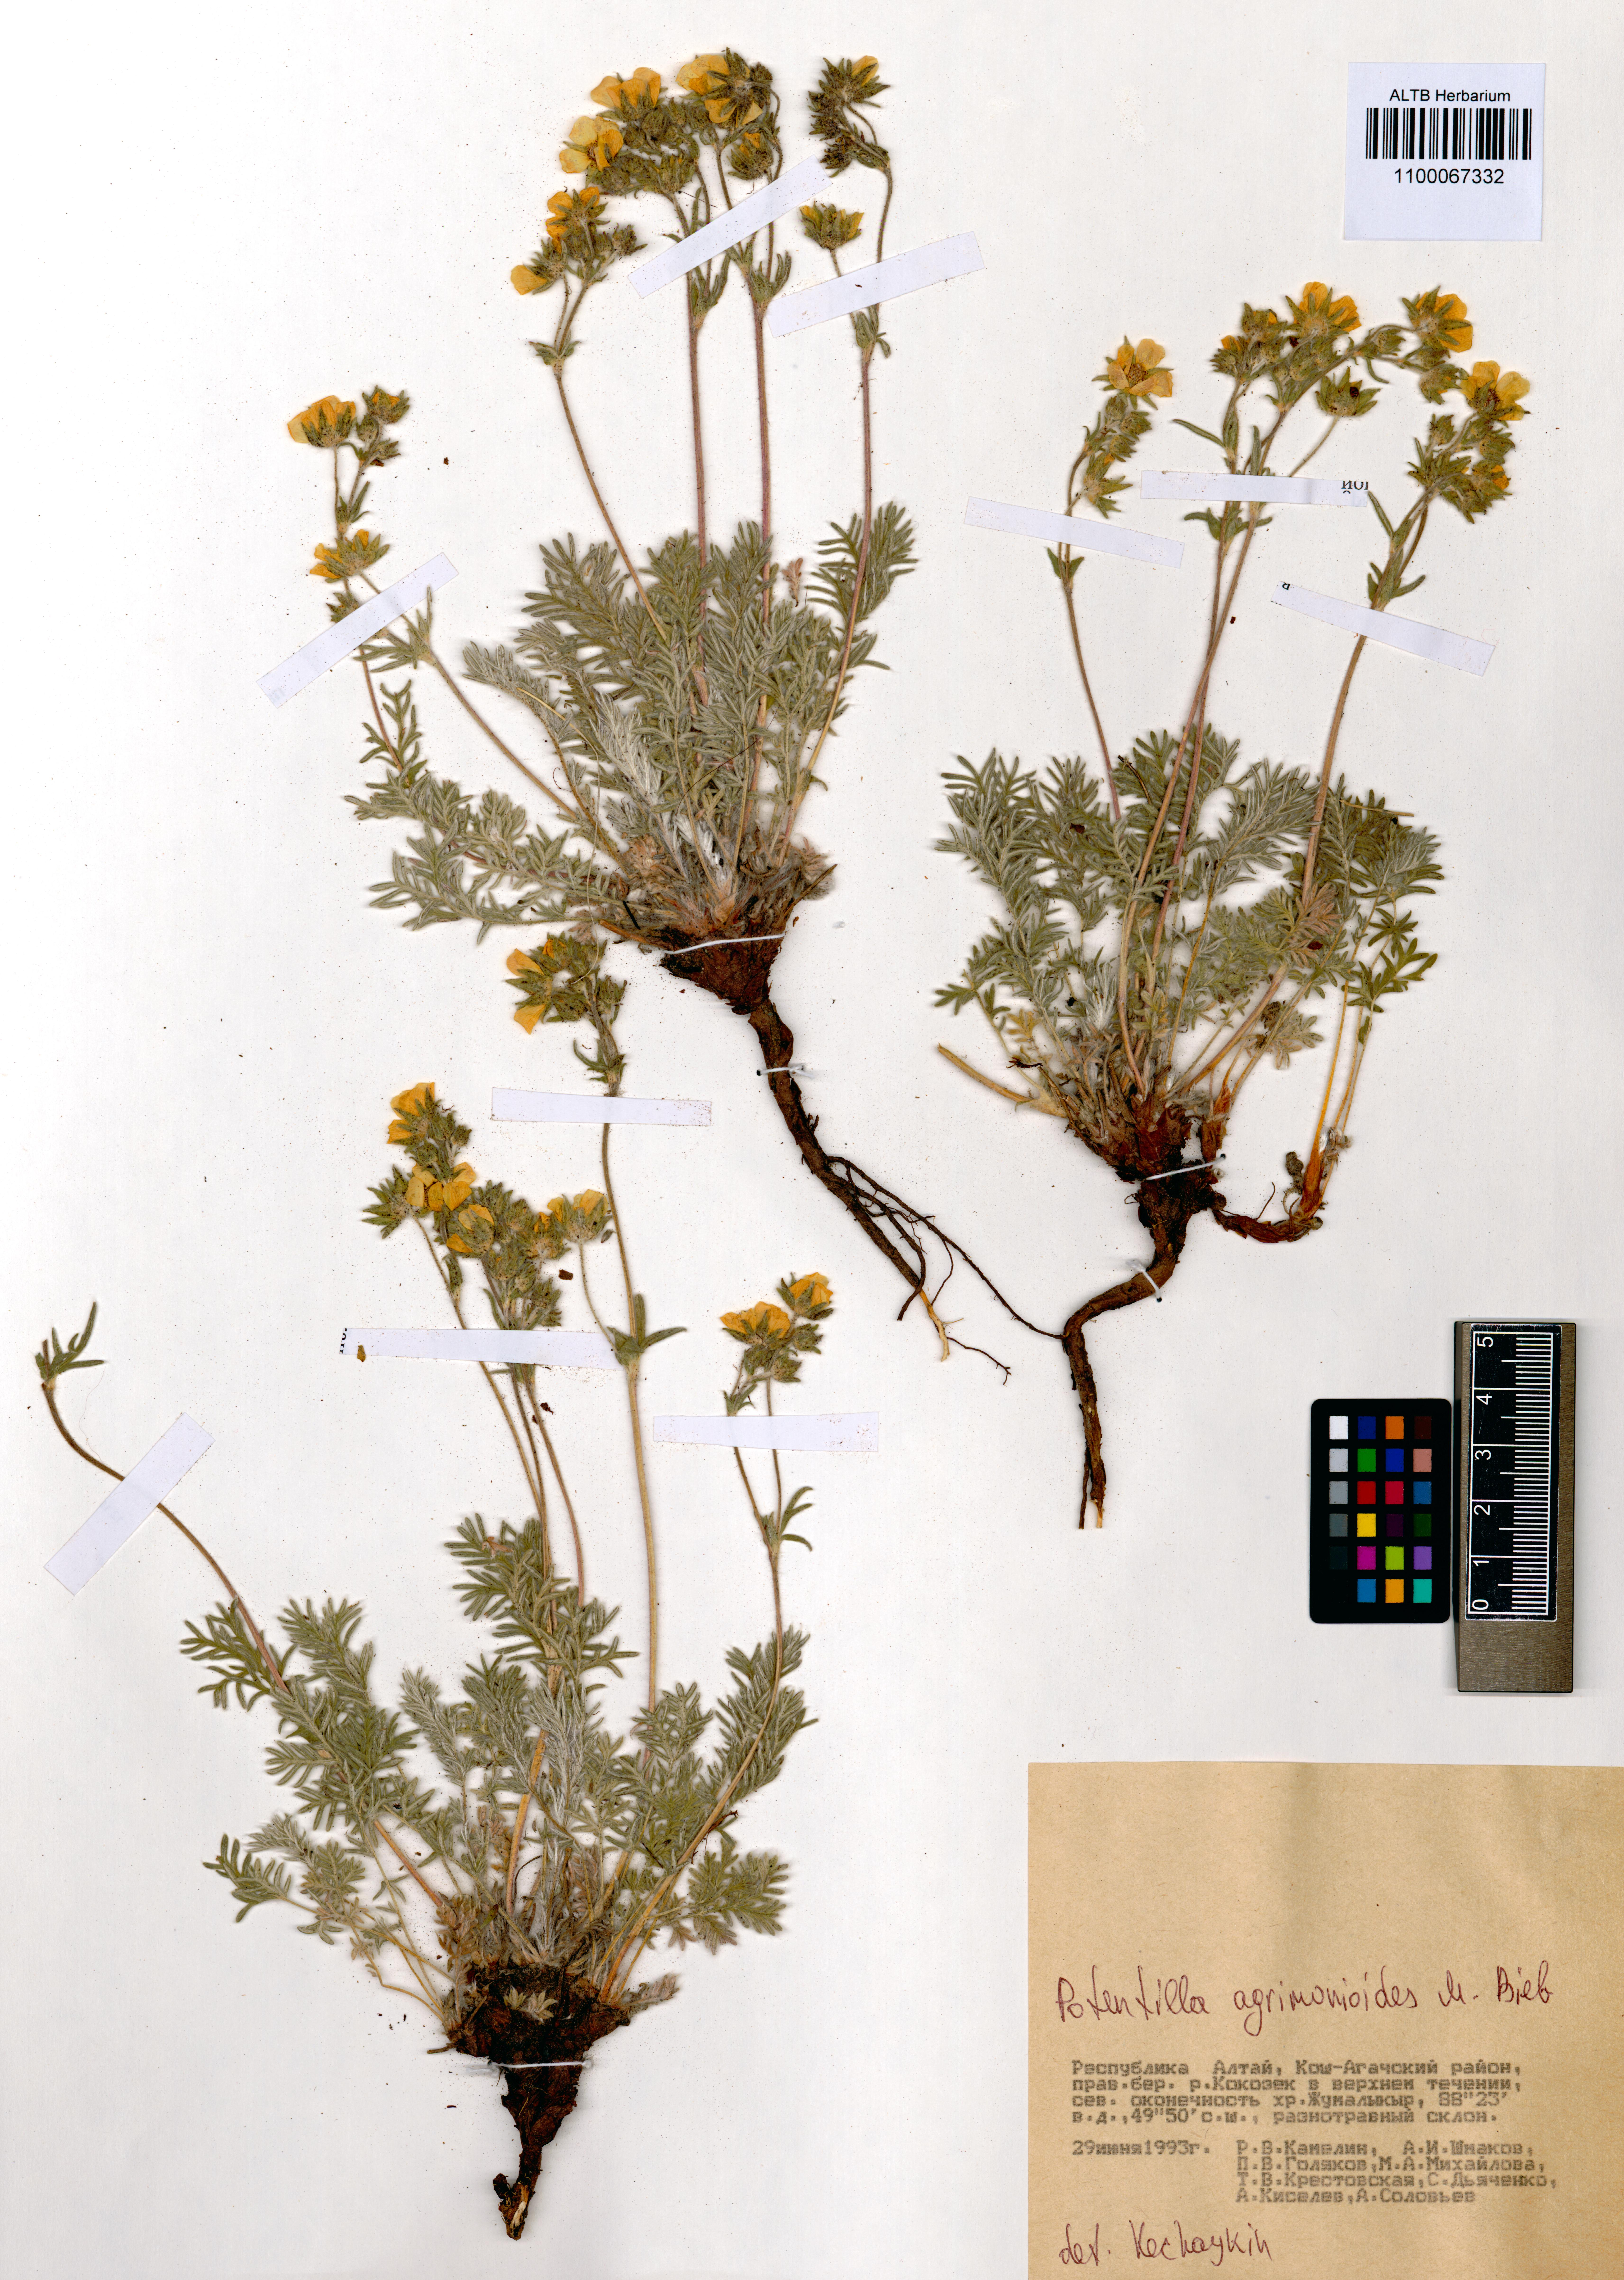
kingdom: Plantae
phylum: Tracheophyta
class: Magnoliopsida
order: Rosales
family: Rosaceae
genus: Potentilla
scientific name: Potentilla agrimonioides
